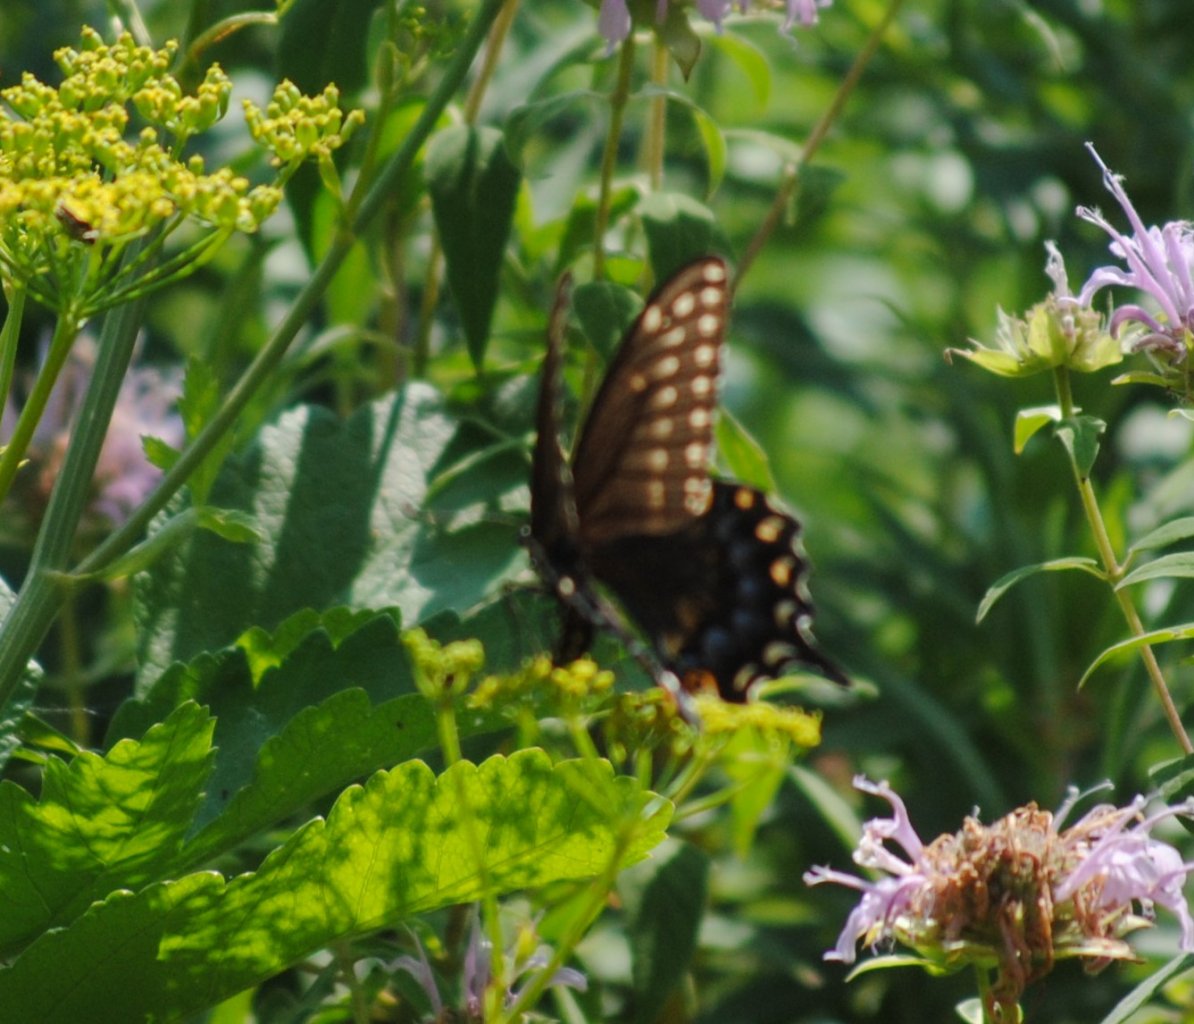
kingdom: Animalia
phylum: Arthropoda
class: Insecta
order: Lepidoptera
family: Papilionidae
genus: Papilio
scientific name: Papilio polyxenes
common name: Black Swallowtail
